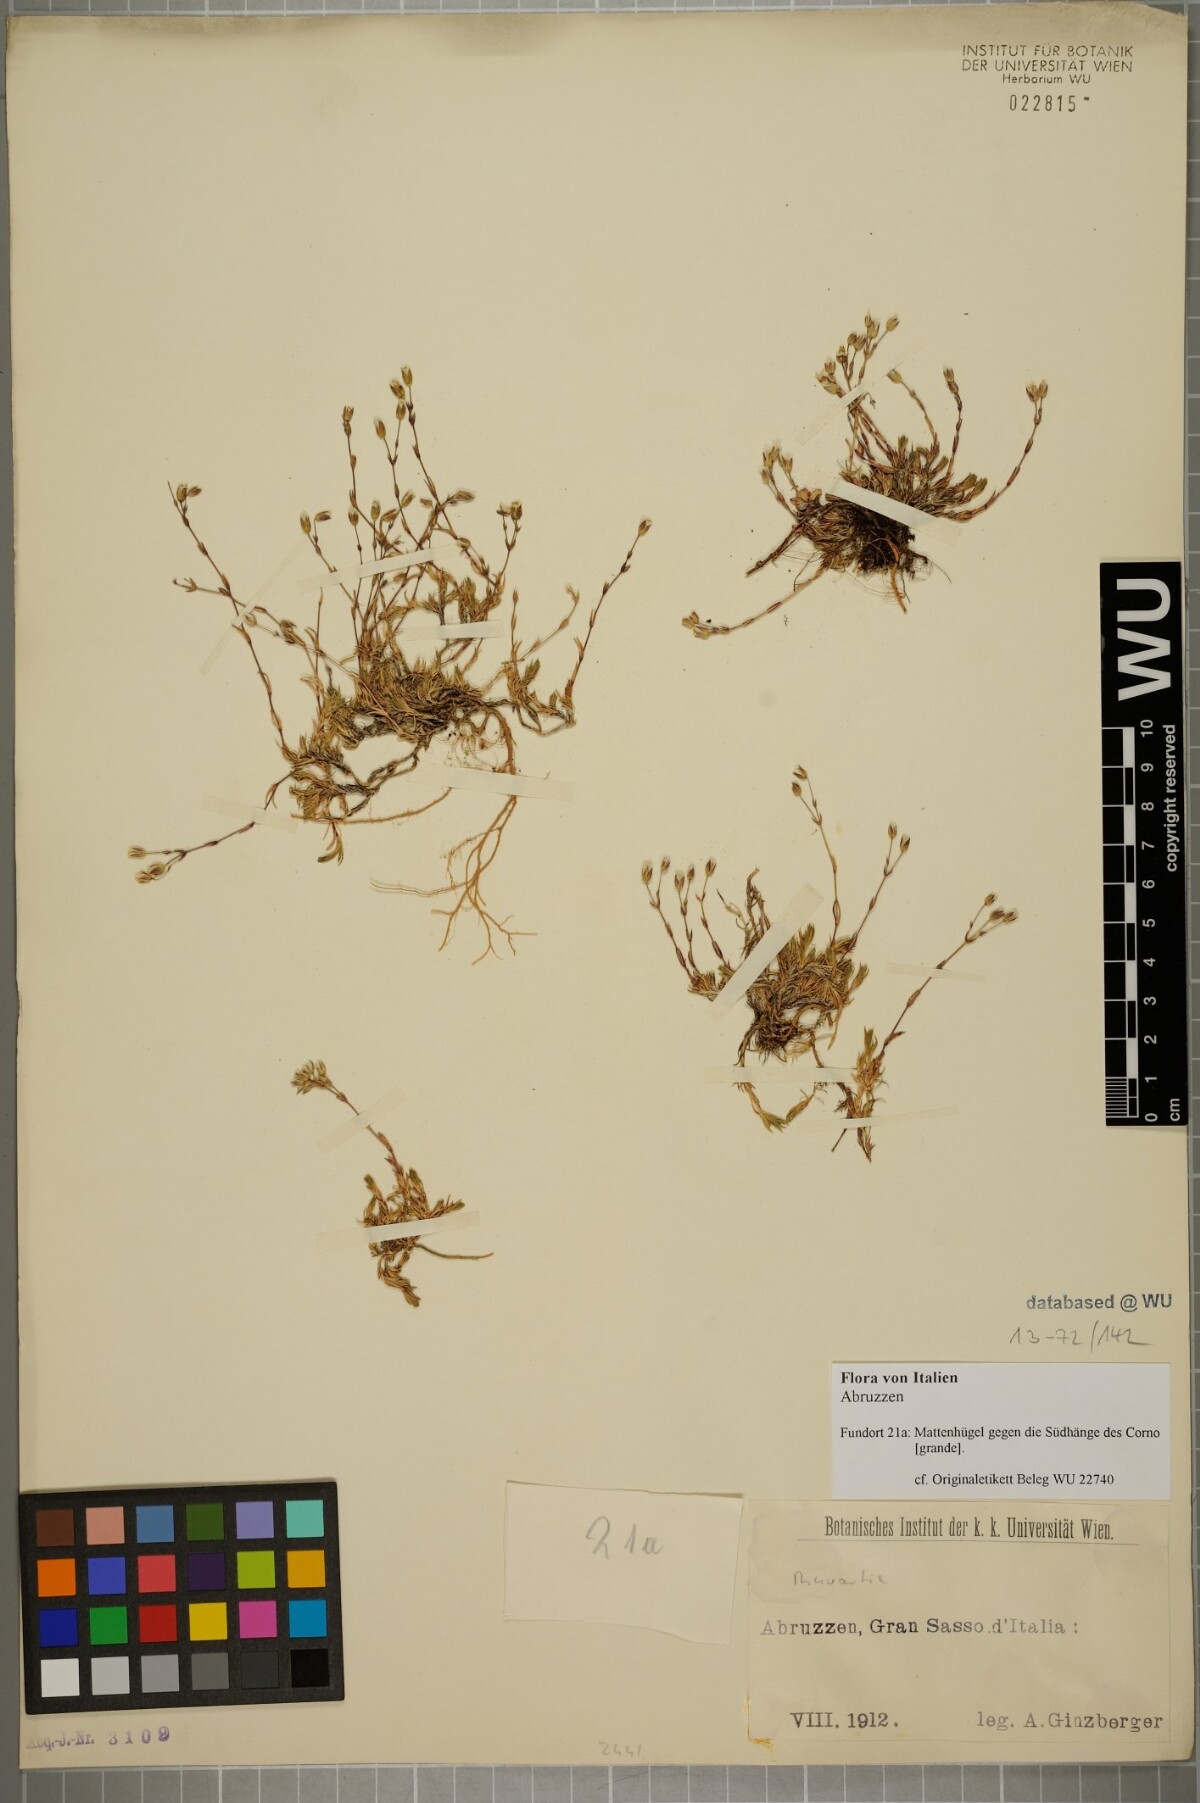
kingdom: Plantae
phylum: Tracheophyta
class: Magnoliopsida
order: Caryophyllales
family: Caryophyllaceae
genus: Sabulina
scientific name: Sabulina verna
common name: Spring sandwort
